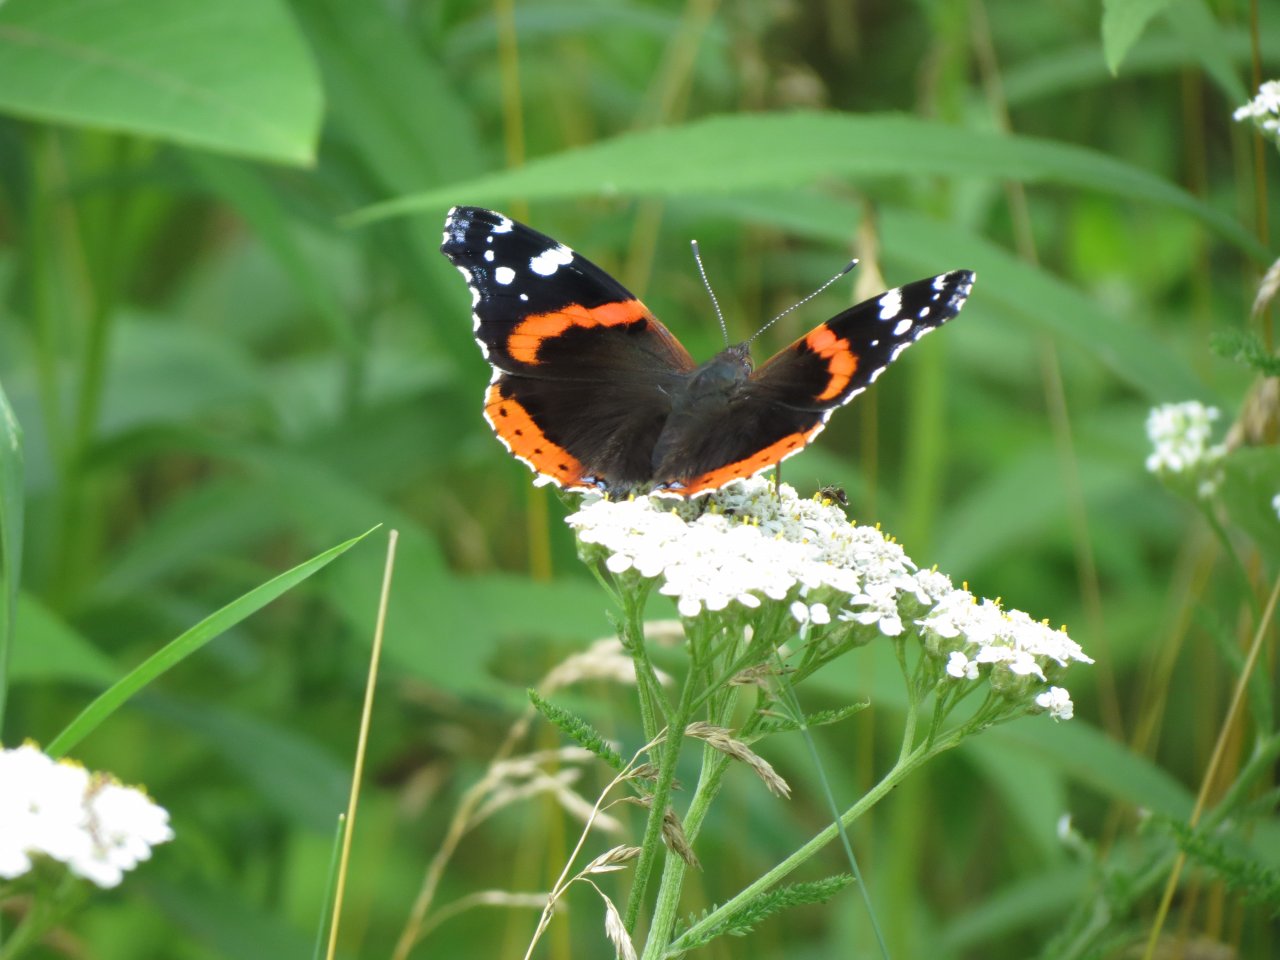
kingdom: Animalia
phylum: Arthropoda
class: Insecta
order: Lepidoptera
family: Nymphalidae
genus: Vanessa
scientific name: Vanessa atalanta
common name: Red Admiral
